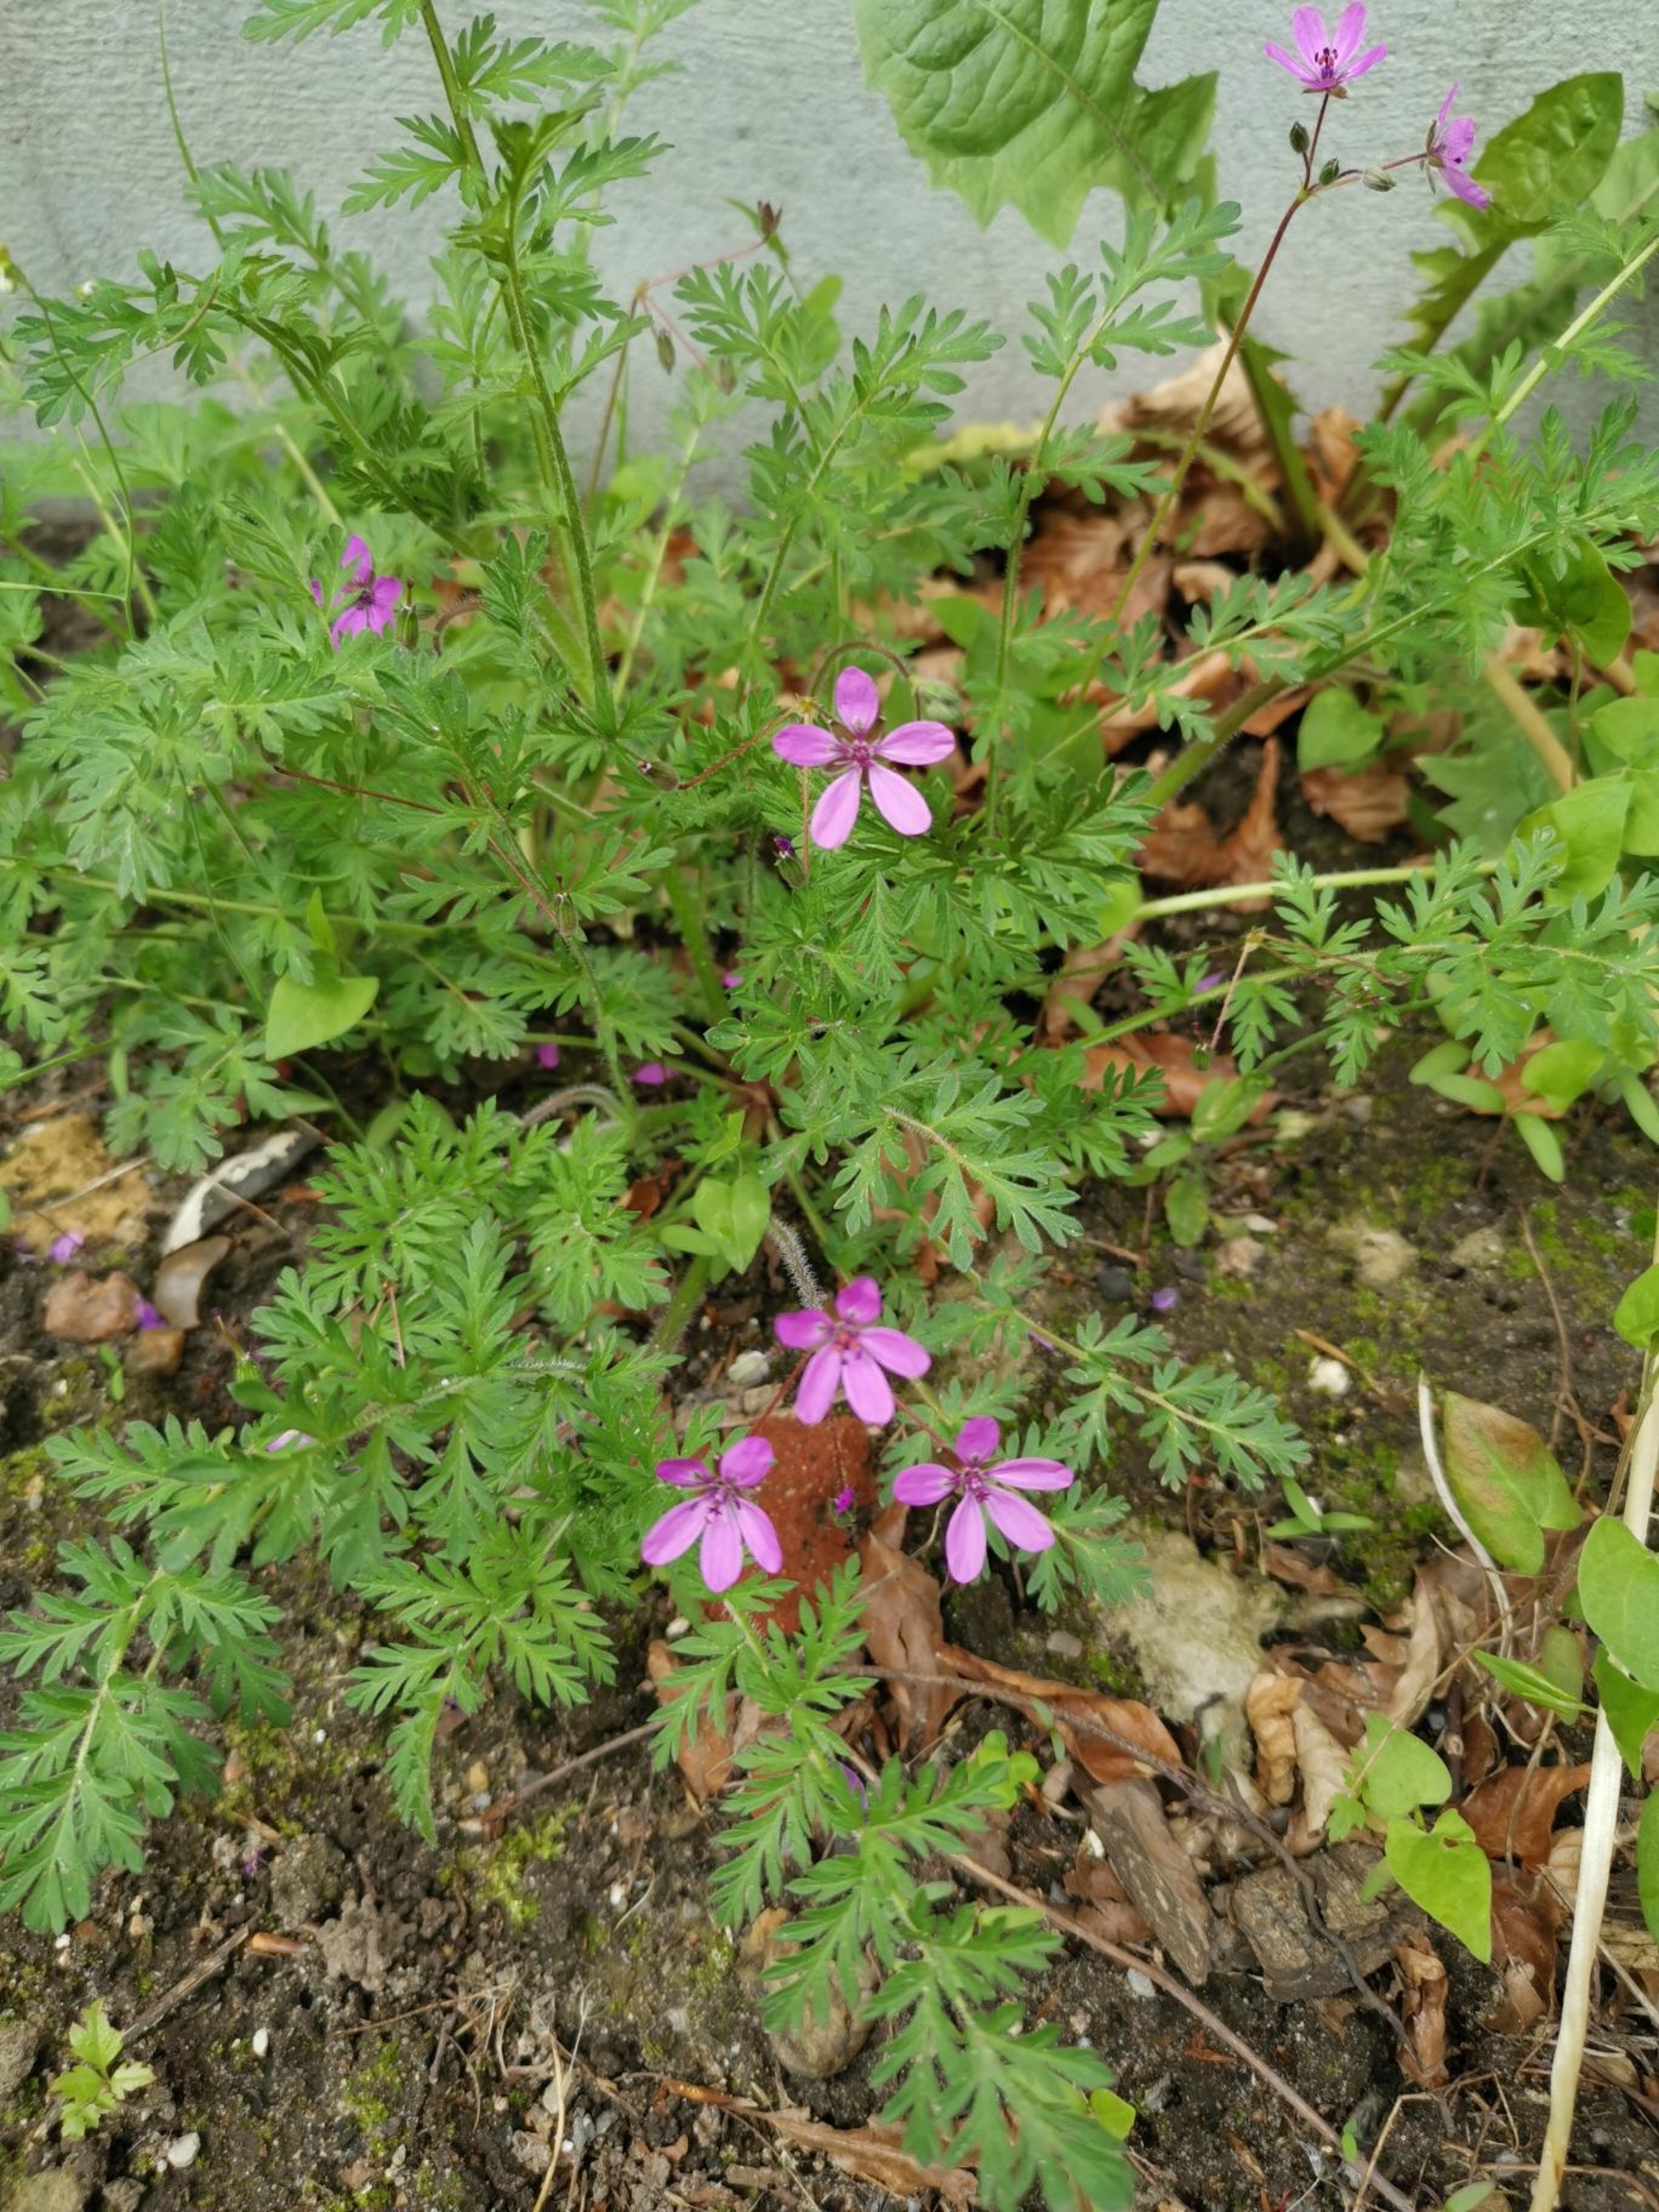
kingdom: Plantae
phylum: Tracheophyta
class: Magnoliopsida
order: Geraniales
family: Geraniaceae
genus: Erodium
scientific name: Erodium cicutarium
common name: Hejrenæb
